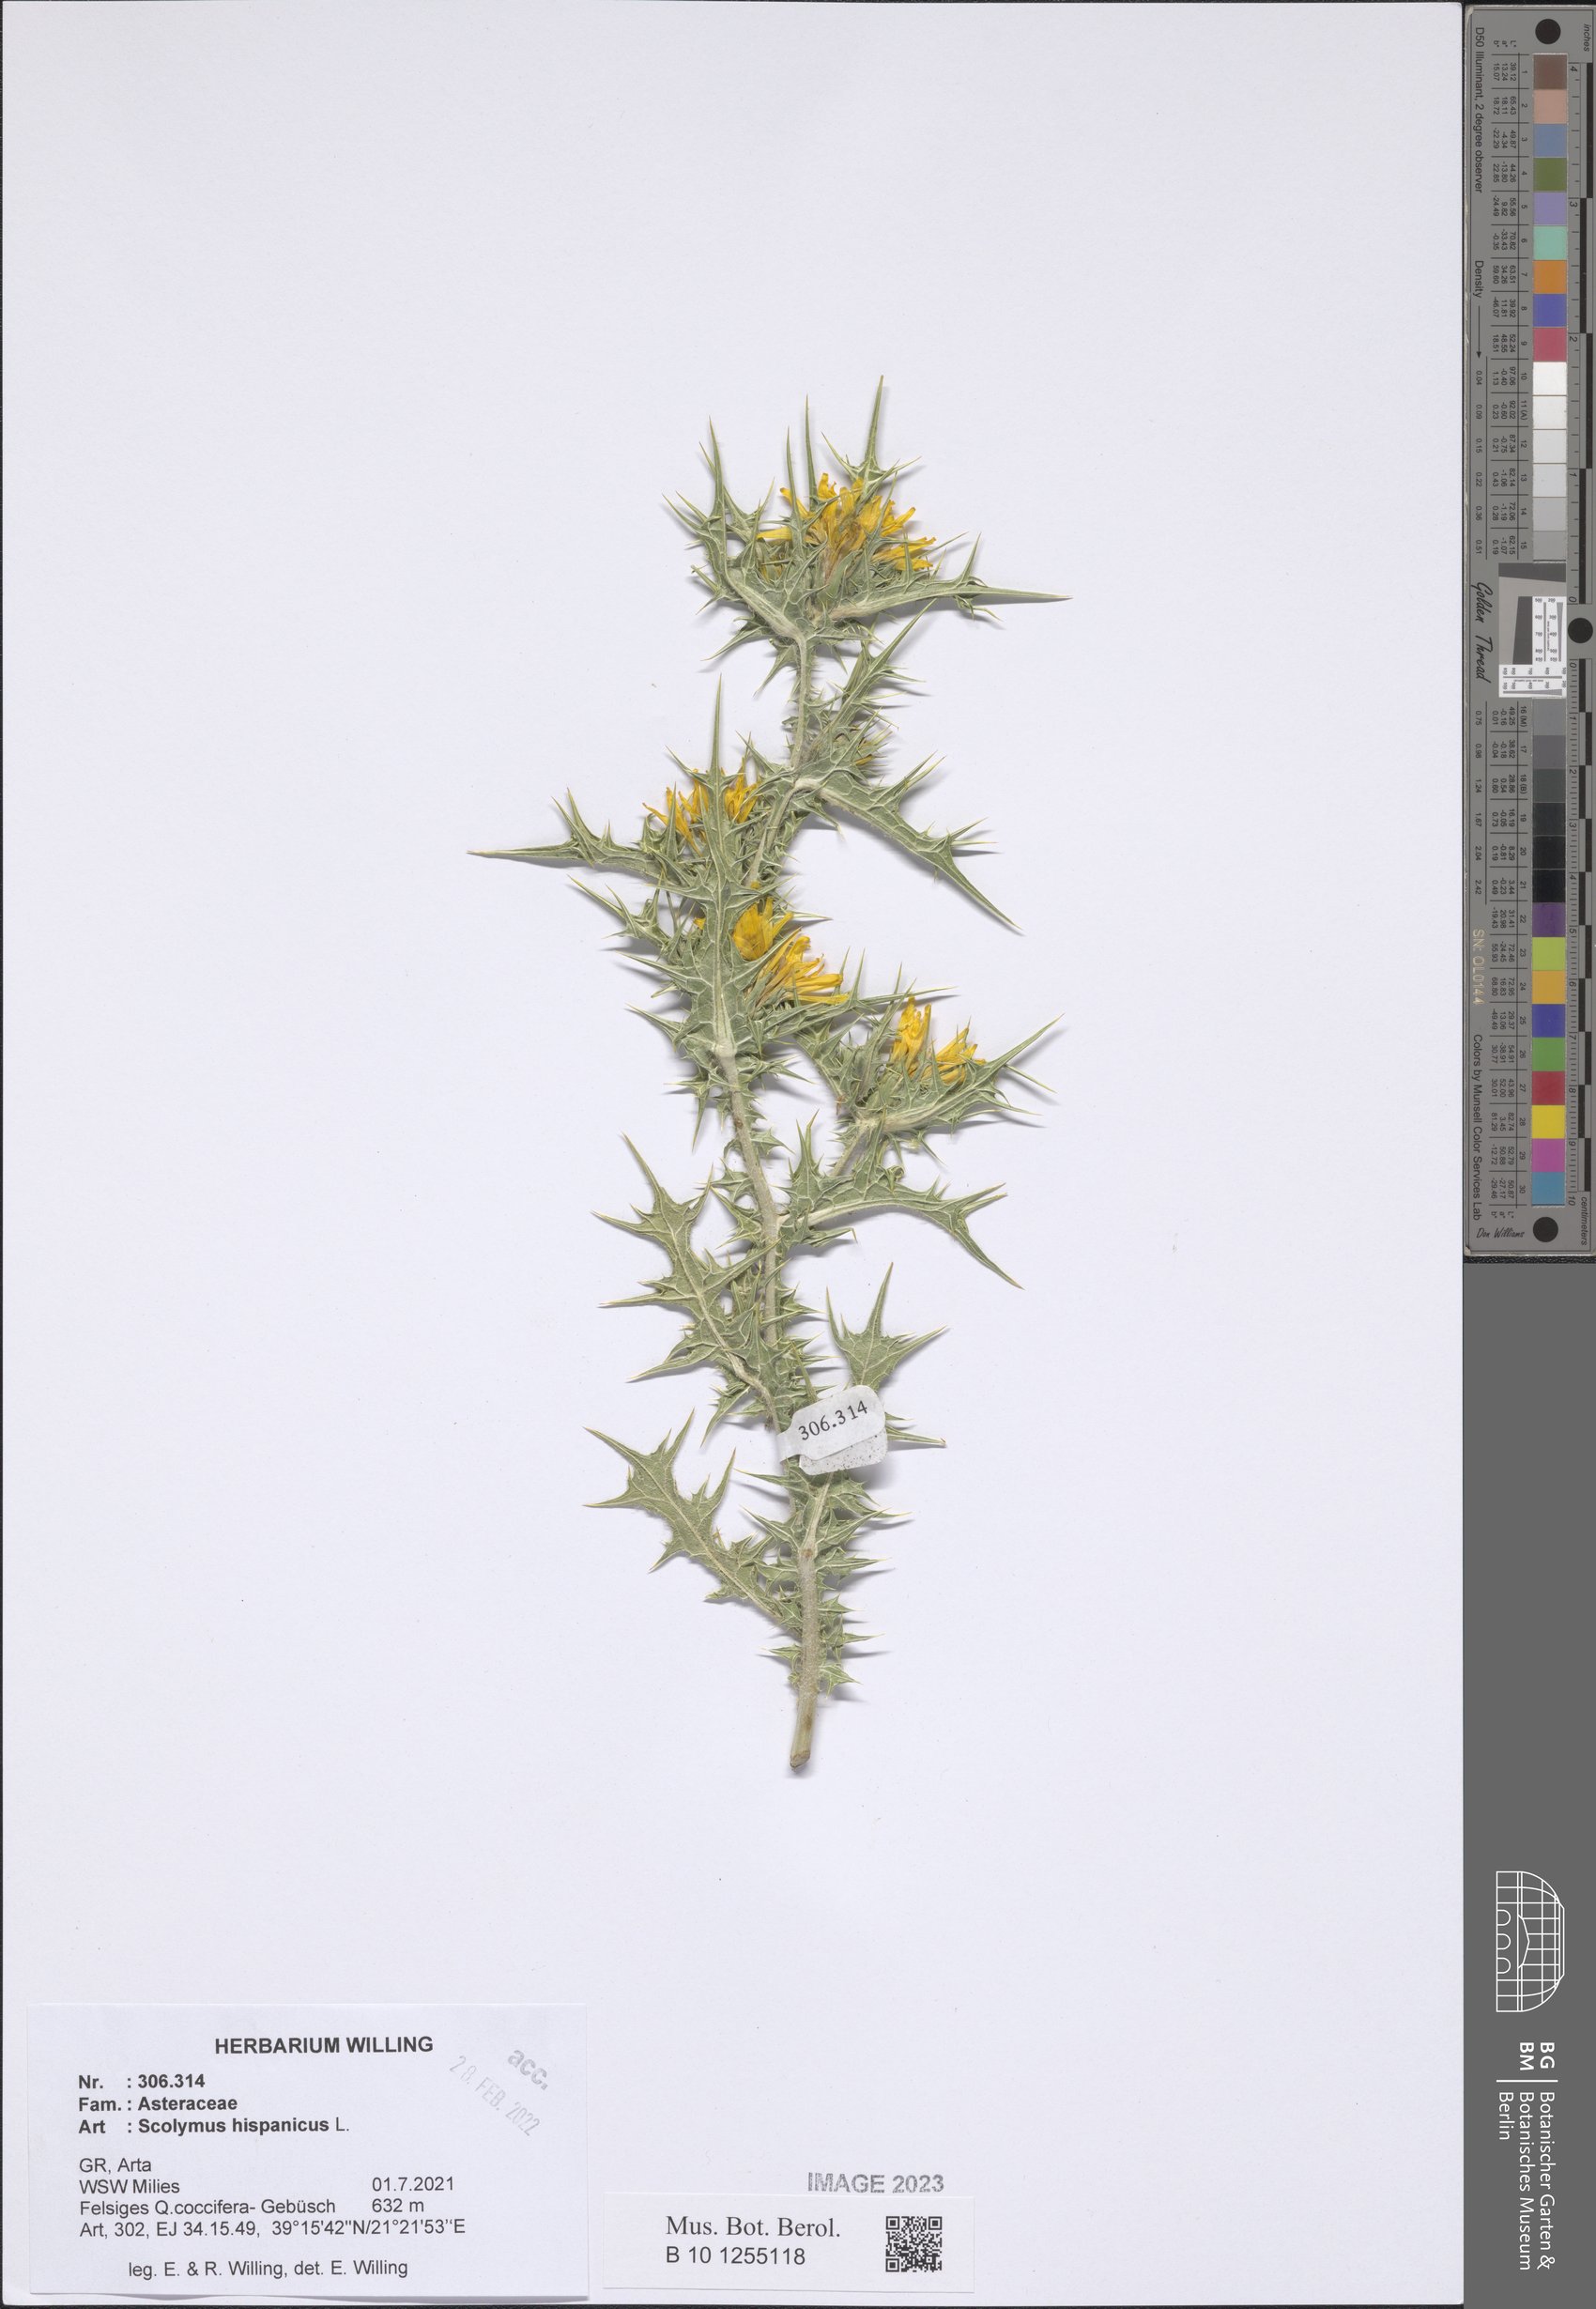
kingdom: Plantae
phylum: Tracheophyta
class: Magnoliopsida
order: Asterales
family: Asteraceae
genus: Scolymus
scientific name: Scolymus hispanicus
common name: Golden thistle
